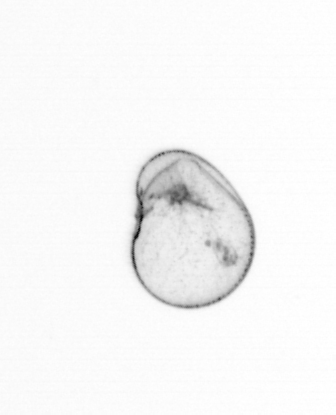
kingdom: Chromista
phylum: Myzozoa
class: Dinophyceae
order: Noctilucales
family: Noctilucaceae
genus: Noctiluca
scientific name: Noctiluca scintillans
